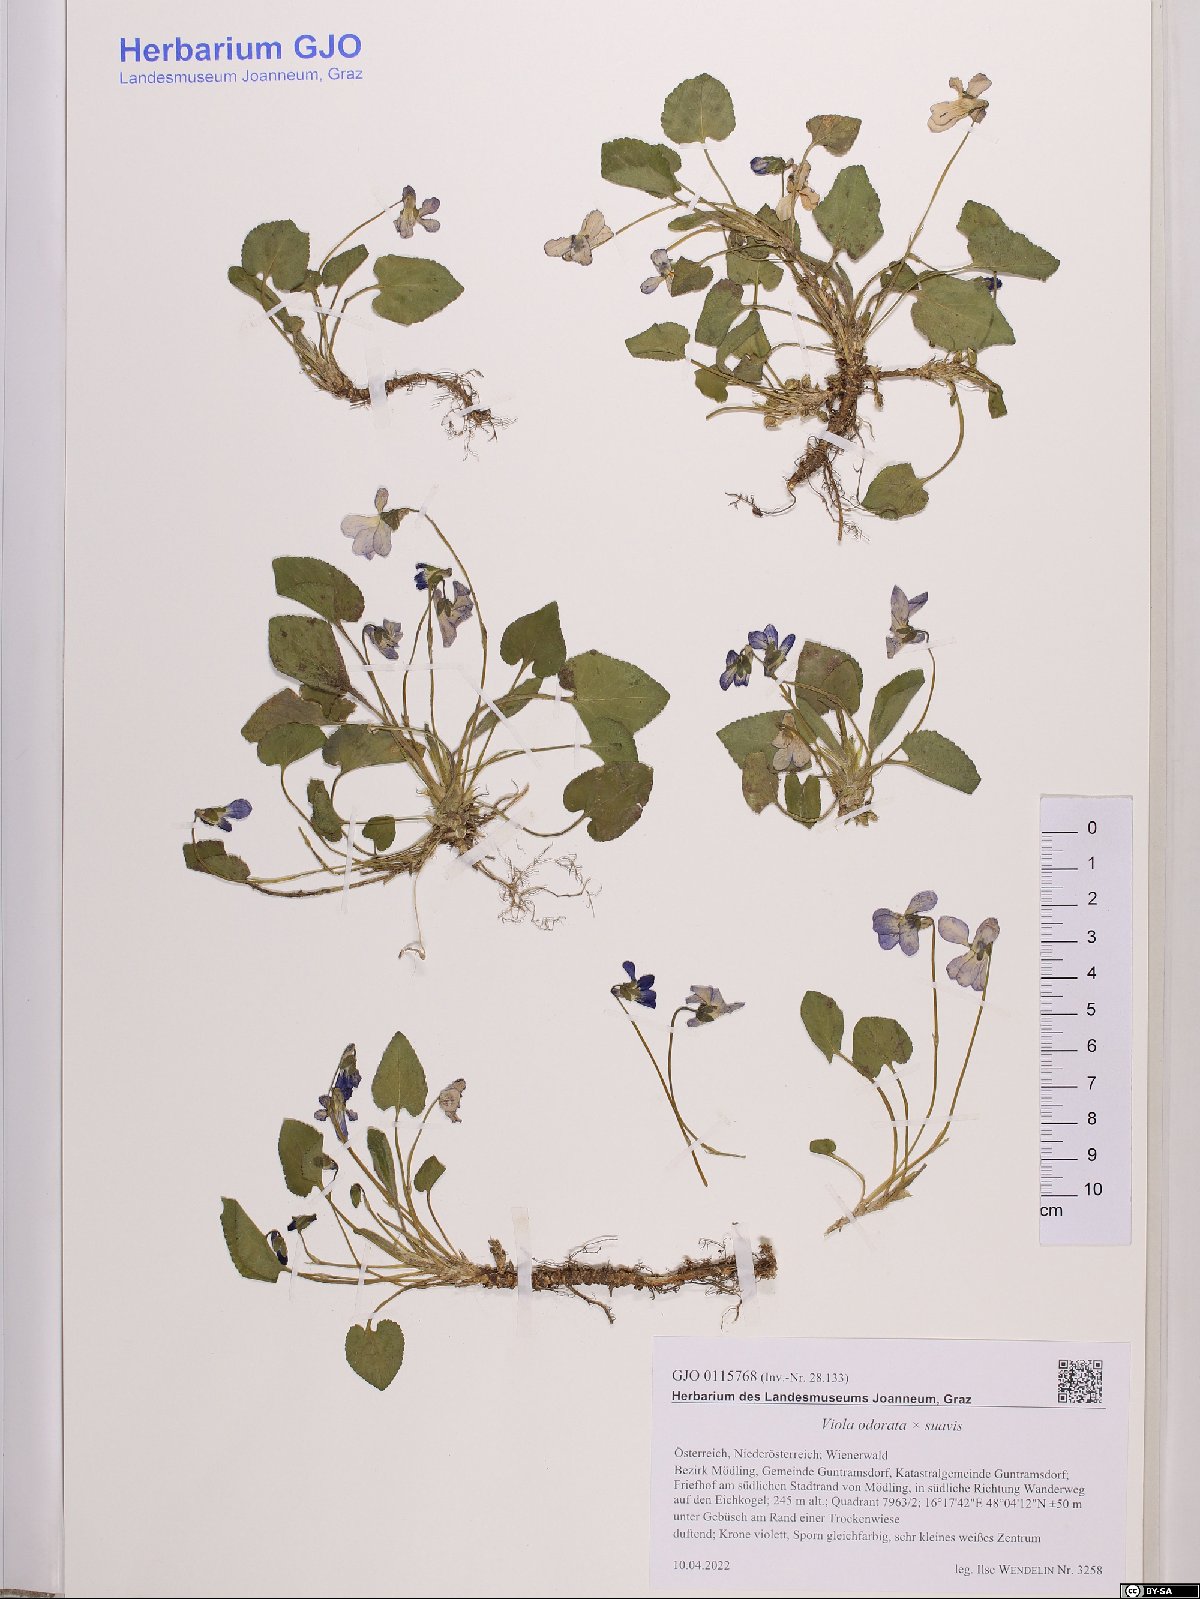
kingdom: Plantae
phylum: Tracheophyta
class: Magnoliopsida
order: Malpighiales
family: Violaceae
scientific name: Violaceae
